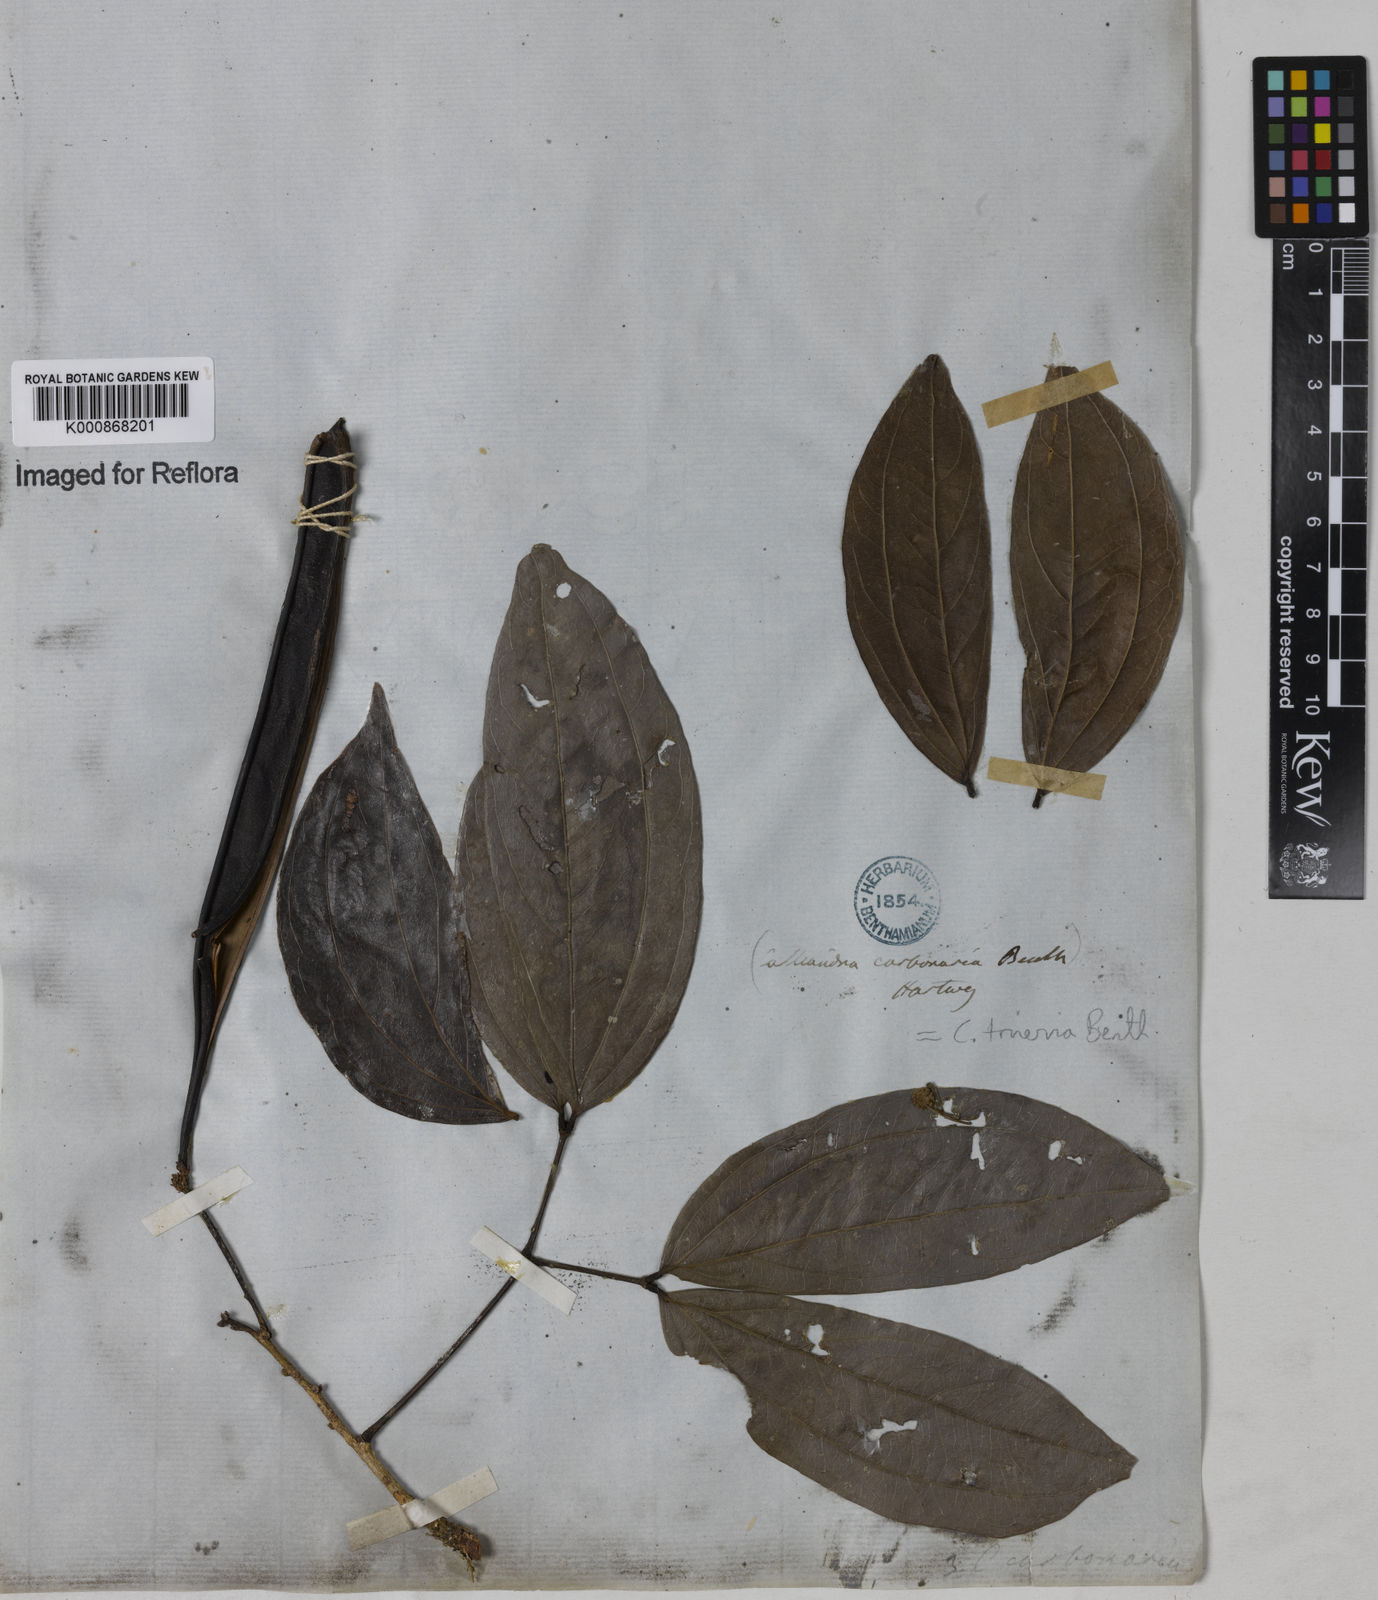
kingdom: Plantae
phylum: Tracheophyta
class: Magnoliopsida
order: Fabales
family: Fabaceae
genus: Calliandra
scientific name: Calliandra trinervia
